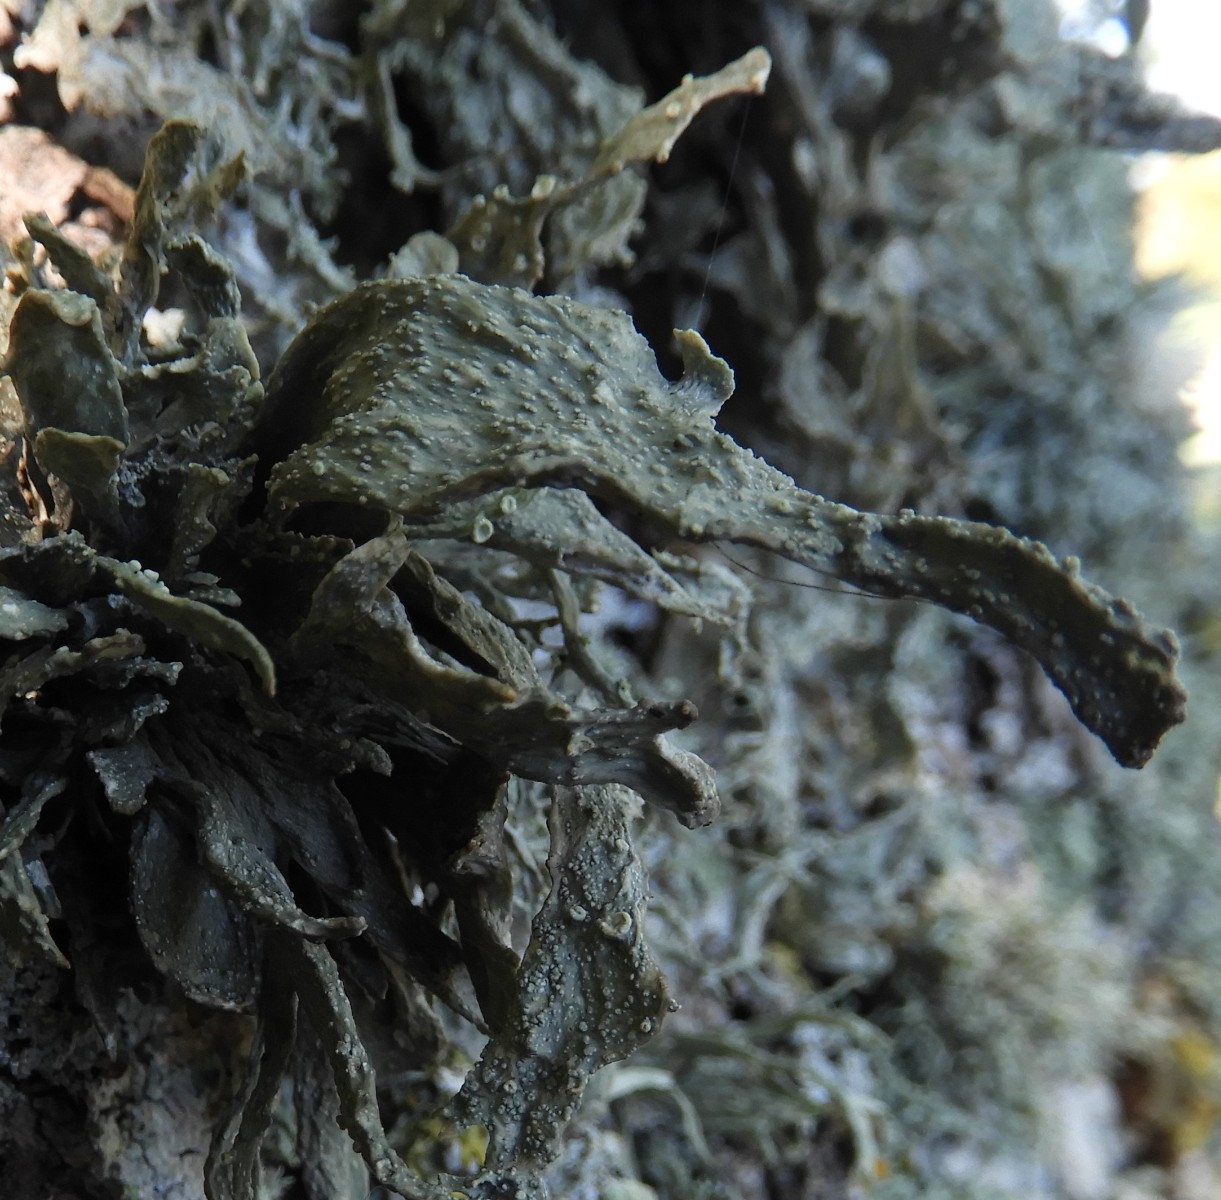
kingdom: Fungi
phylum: Ascomycota
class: Lecanoromycetes
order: Lecanorales
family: Ramalinaceae
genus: Ramalina
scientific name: Ramalina fraxinea
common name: stor grenlav
